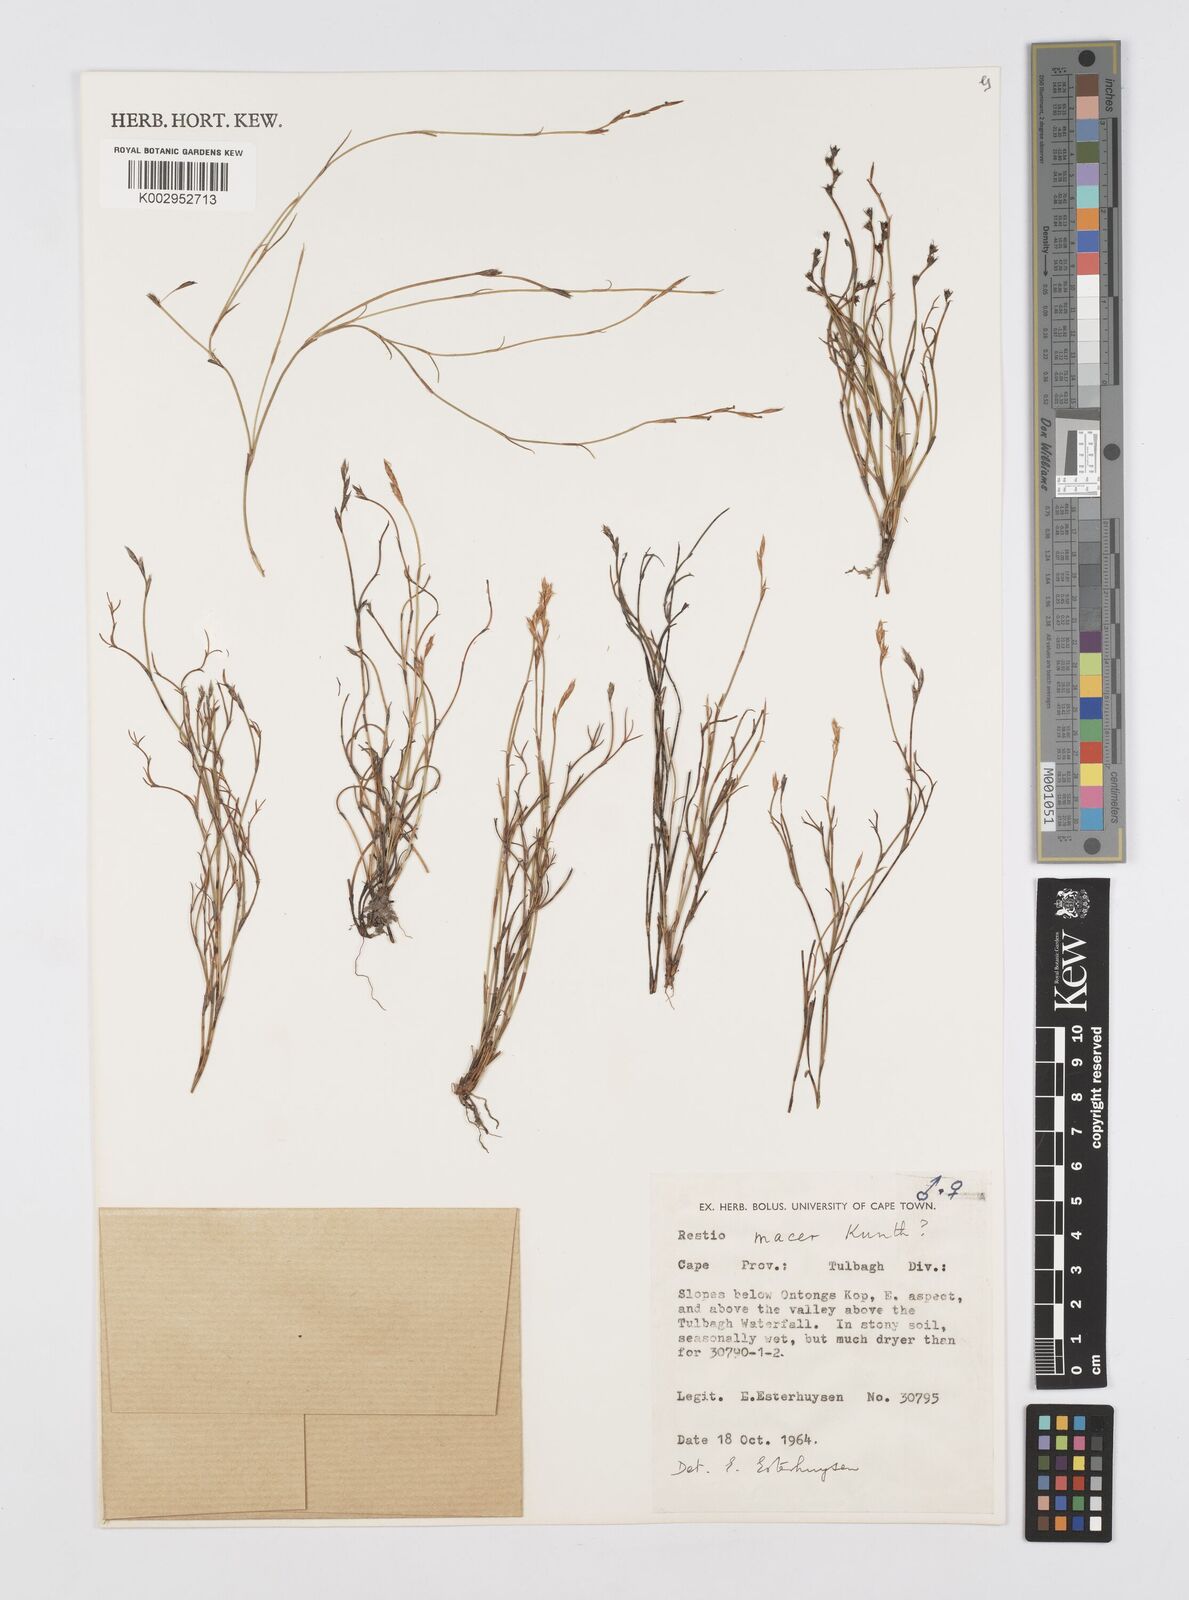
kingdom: Plantae
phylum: Tracheophyta
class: Liliopsida
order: Poales
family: Restionaceae
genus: Restio
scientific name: Restio macer
